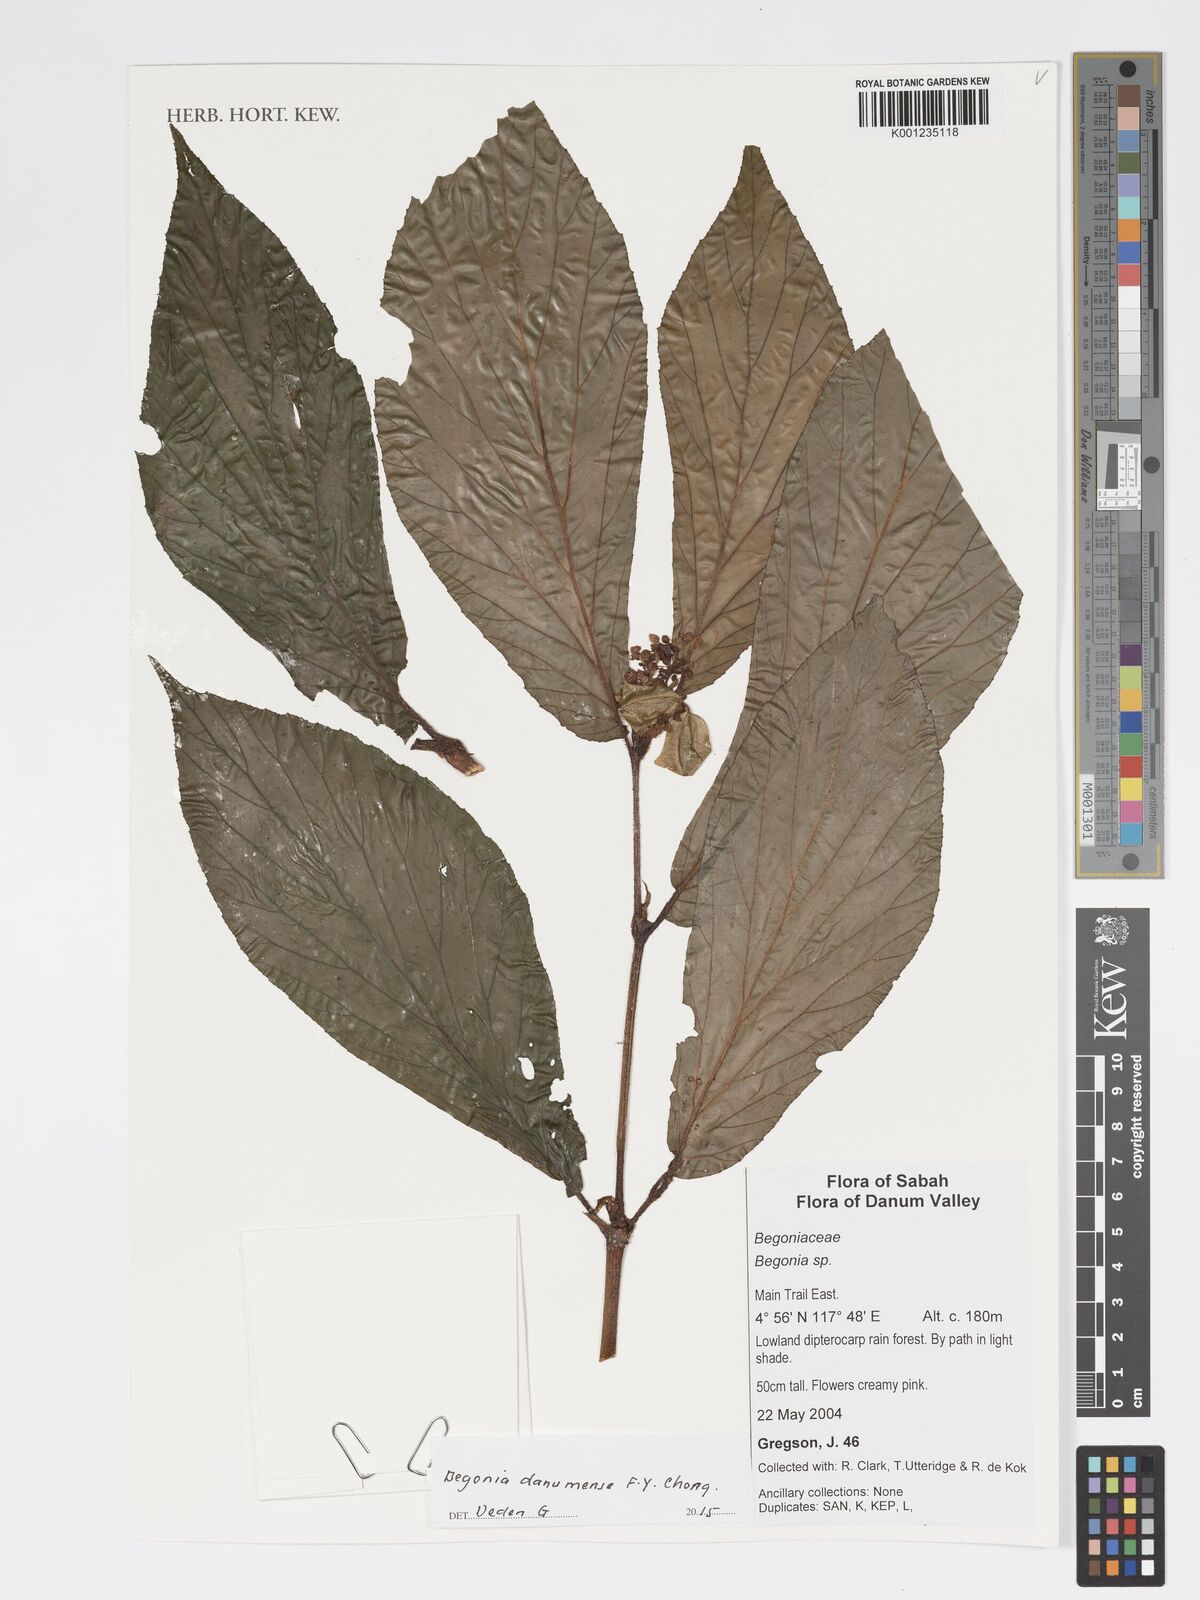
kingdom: Plantae
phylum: Tracheophyta
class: Magnoliopsida
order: Cucurbitales
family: Begoniaceae
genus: Begonia
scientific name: Begonia danumensis
